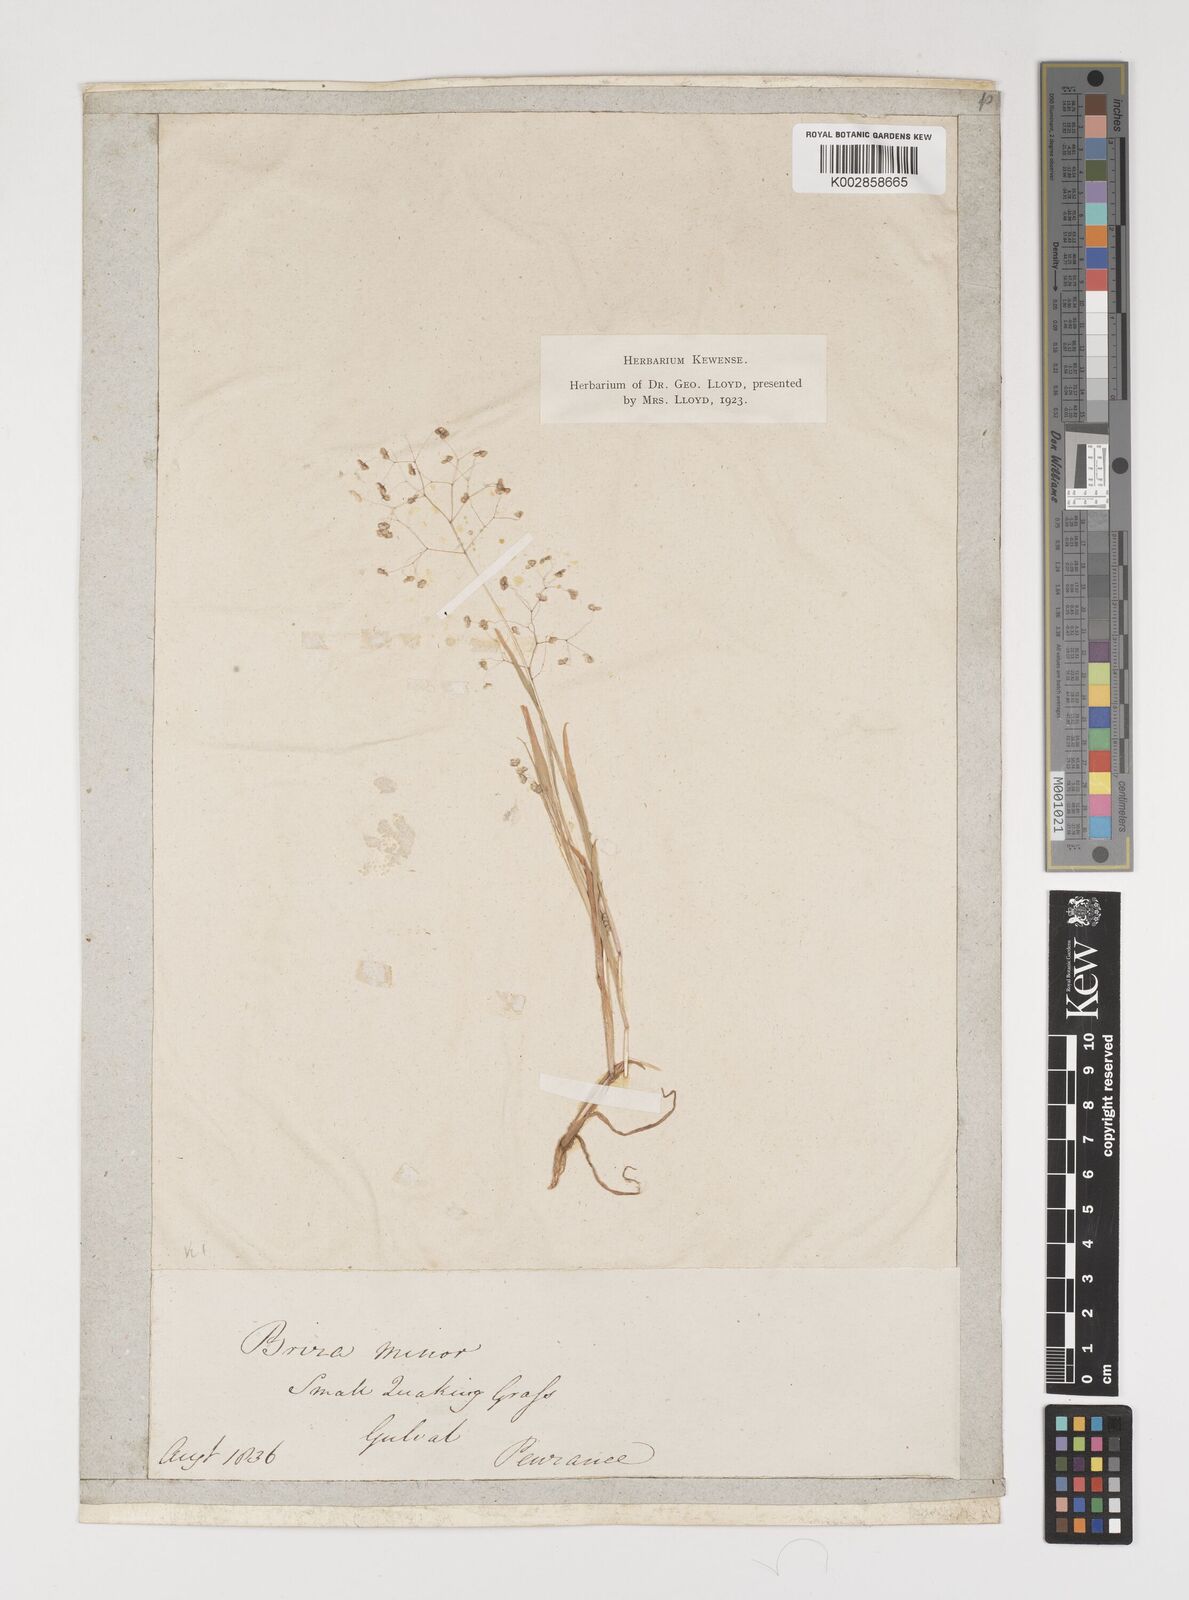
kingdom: Plantae
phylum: Tracheophyta
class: Liliopsida
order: Poales
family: Poaceae
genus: Briza
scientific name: Briza minor
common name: Lesser quaking-grass
